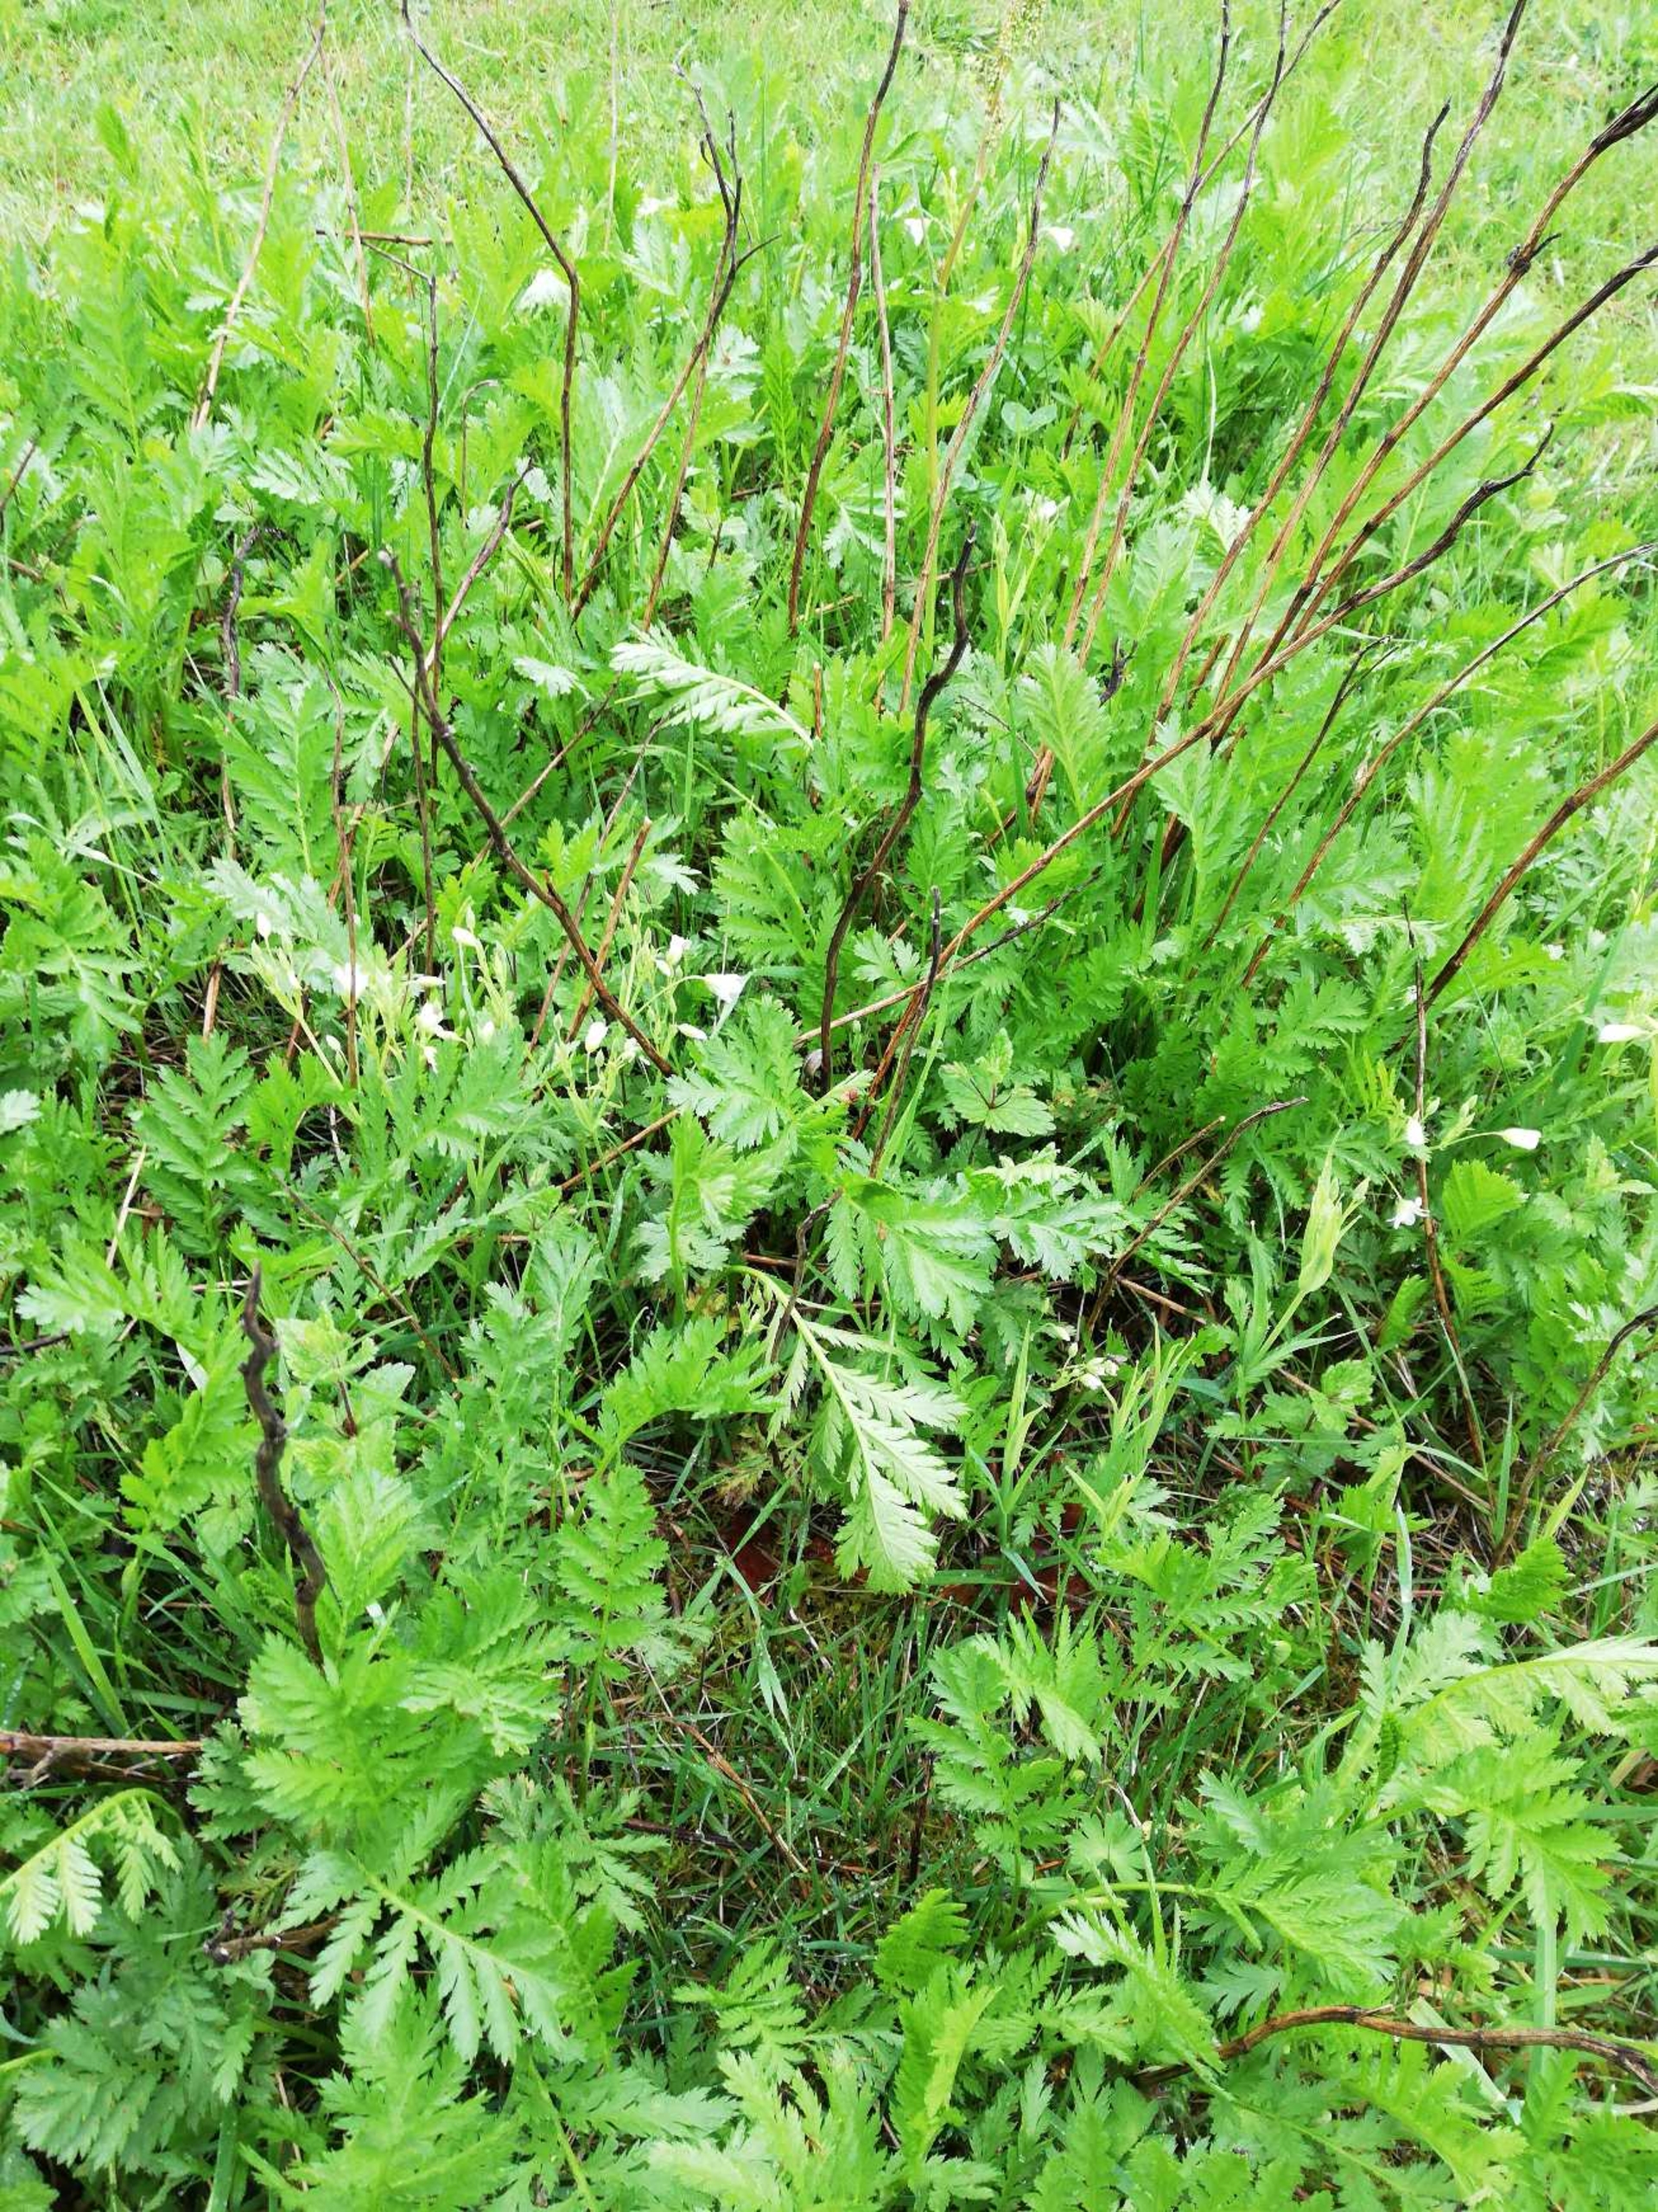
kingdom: Plantae
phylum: Tracheophyta
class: Magnoliopsida
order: Asterales
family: Asteraceae
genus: Tanacetum
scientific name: Tanacetum vulgare
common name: Rejnfan
